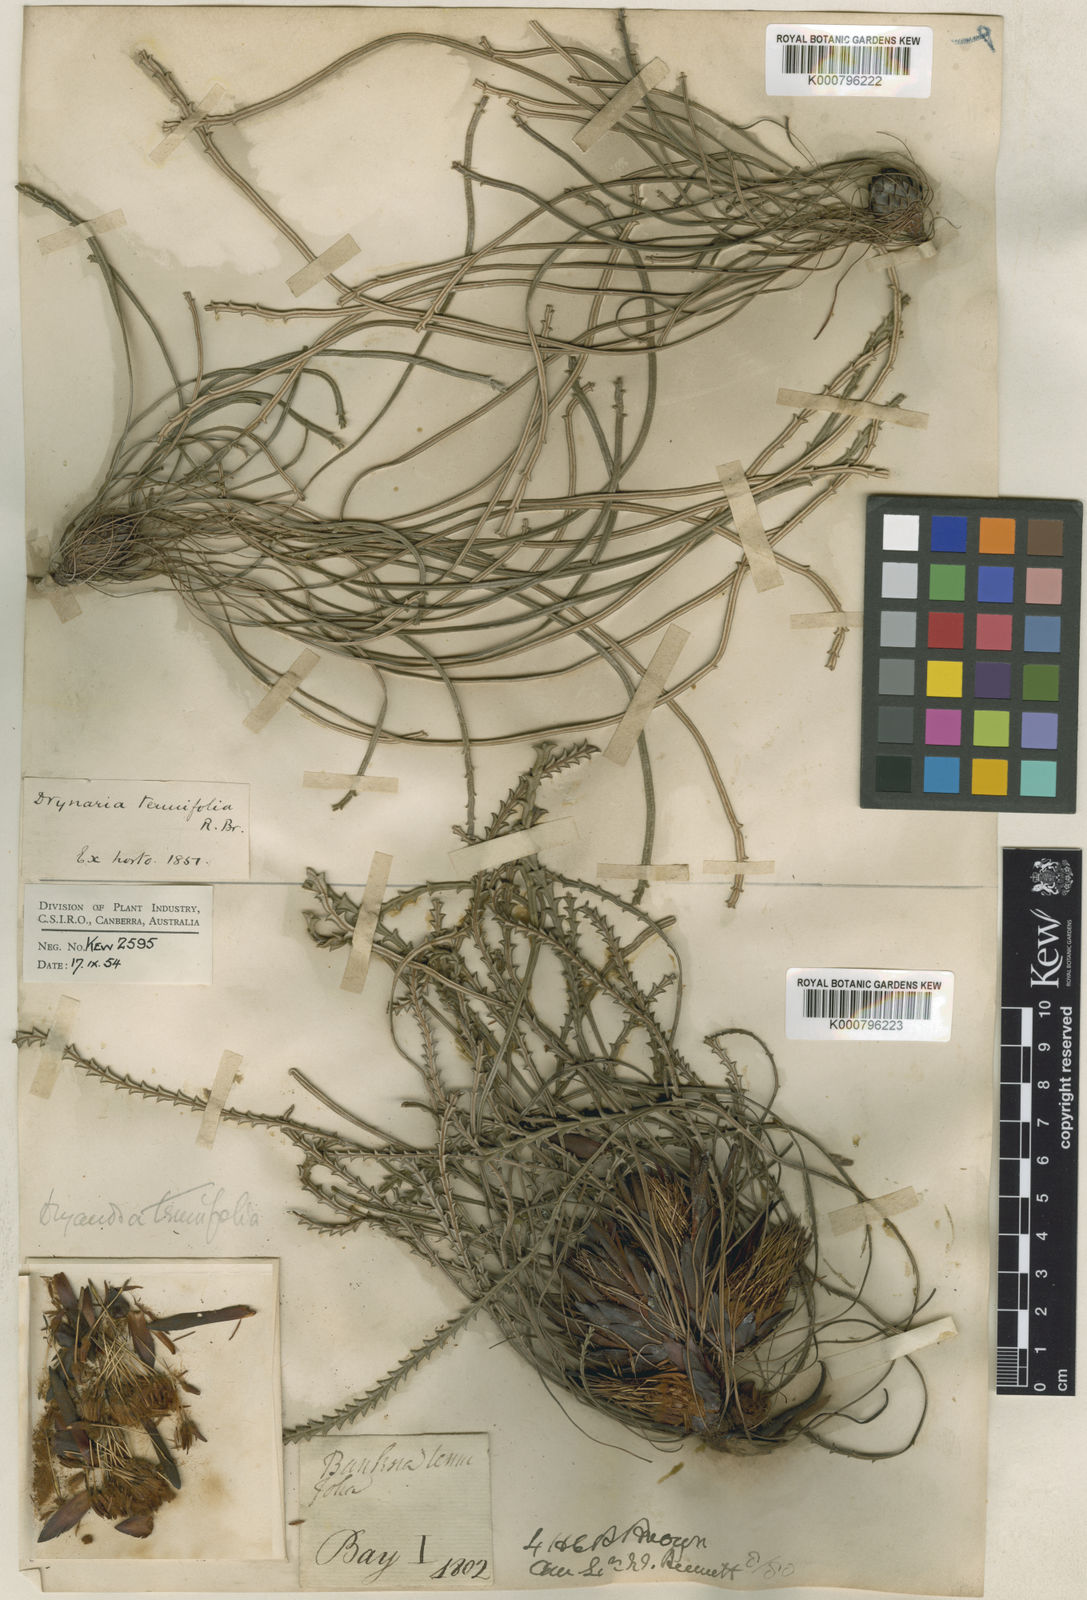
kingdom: Plantae
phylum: Tracheophyta
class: Magnoliopsida
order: Proteales
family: Proteaceae
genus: Banksia
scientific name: Banksia tenuis
